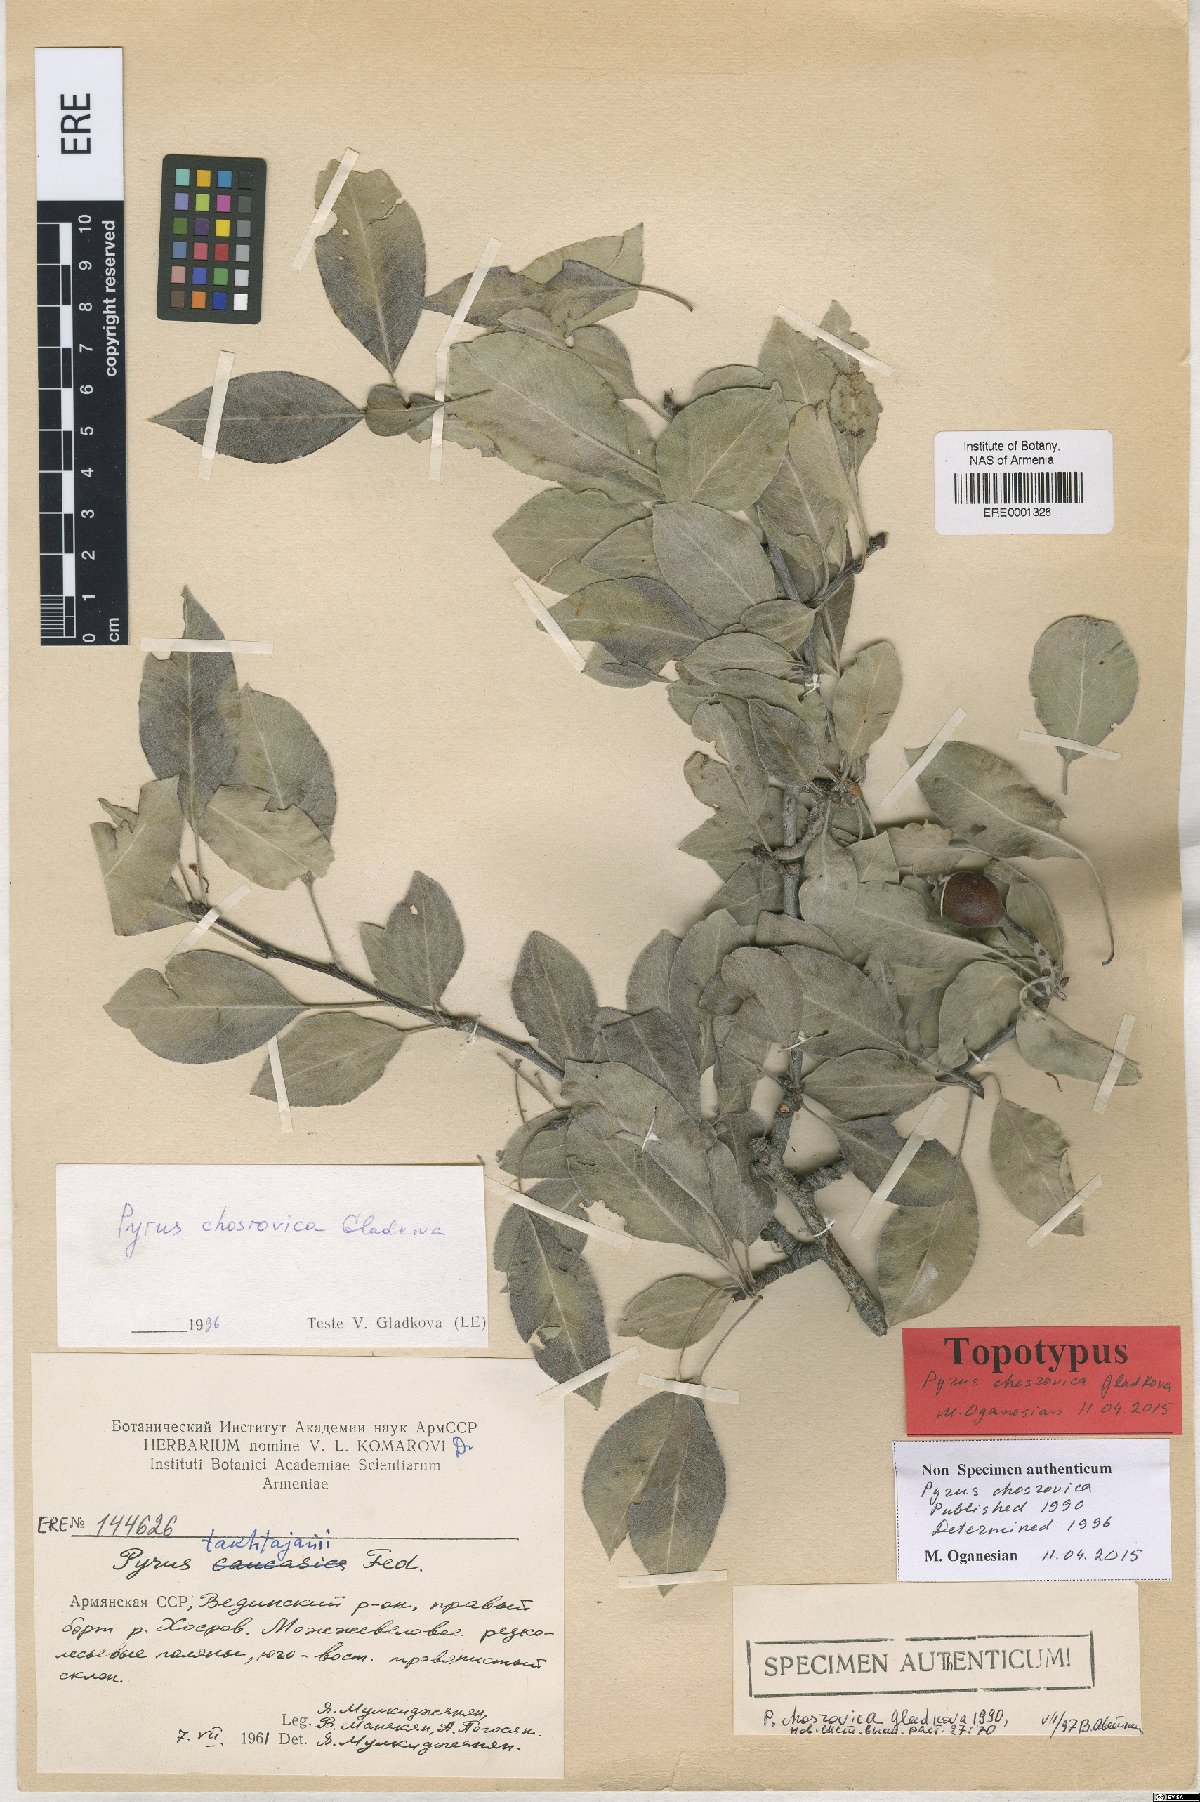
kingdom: Plantae
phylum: Tracheophyta
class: Magnoliopsida
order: Rosales
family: Rosaceae
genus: Pyrus
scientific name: Pyrus chosrovica
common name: Khosrovian pear
